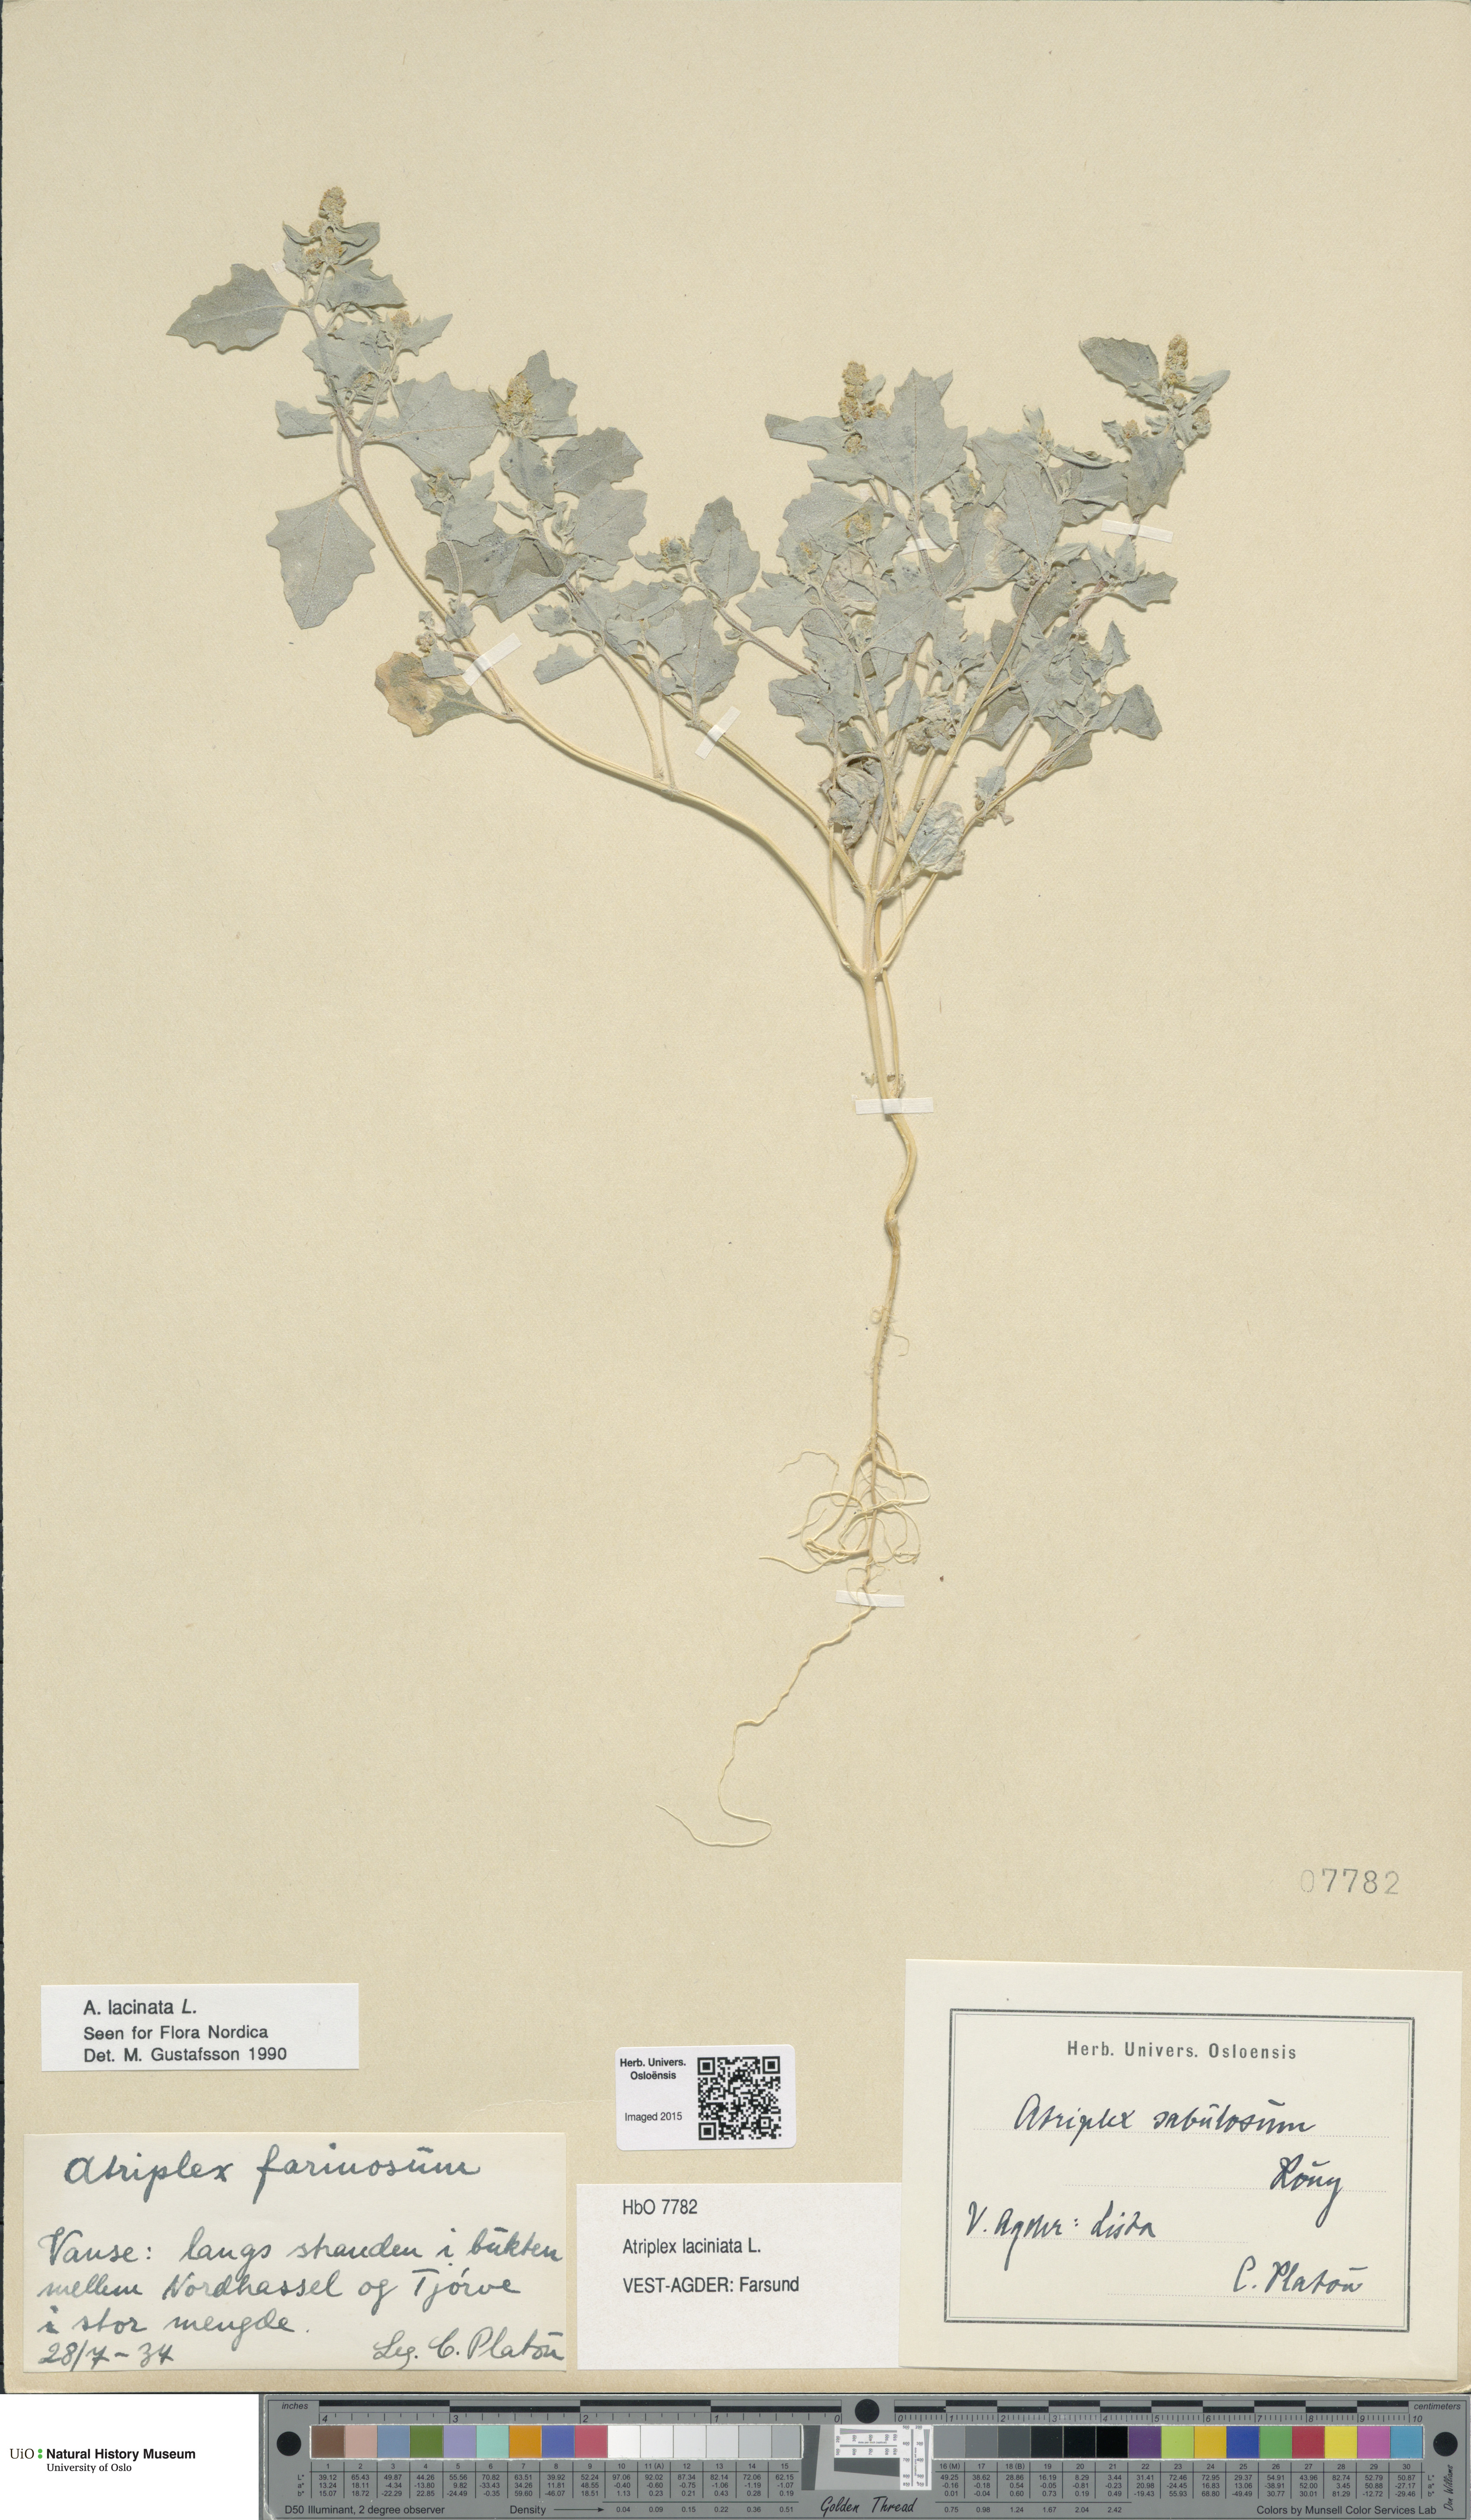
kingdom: Plantae
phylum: Tracheophyta
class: Magnoliopsida
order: Caryophyllales
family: Amaranthaceae
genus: Atriplex
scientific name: Atriplex laciniata
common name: Frosted orache
